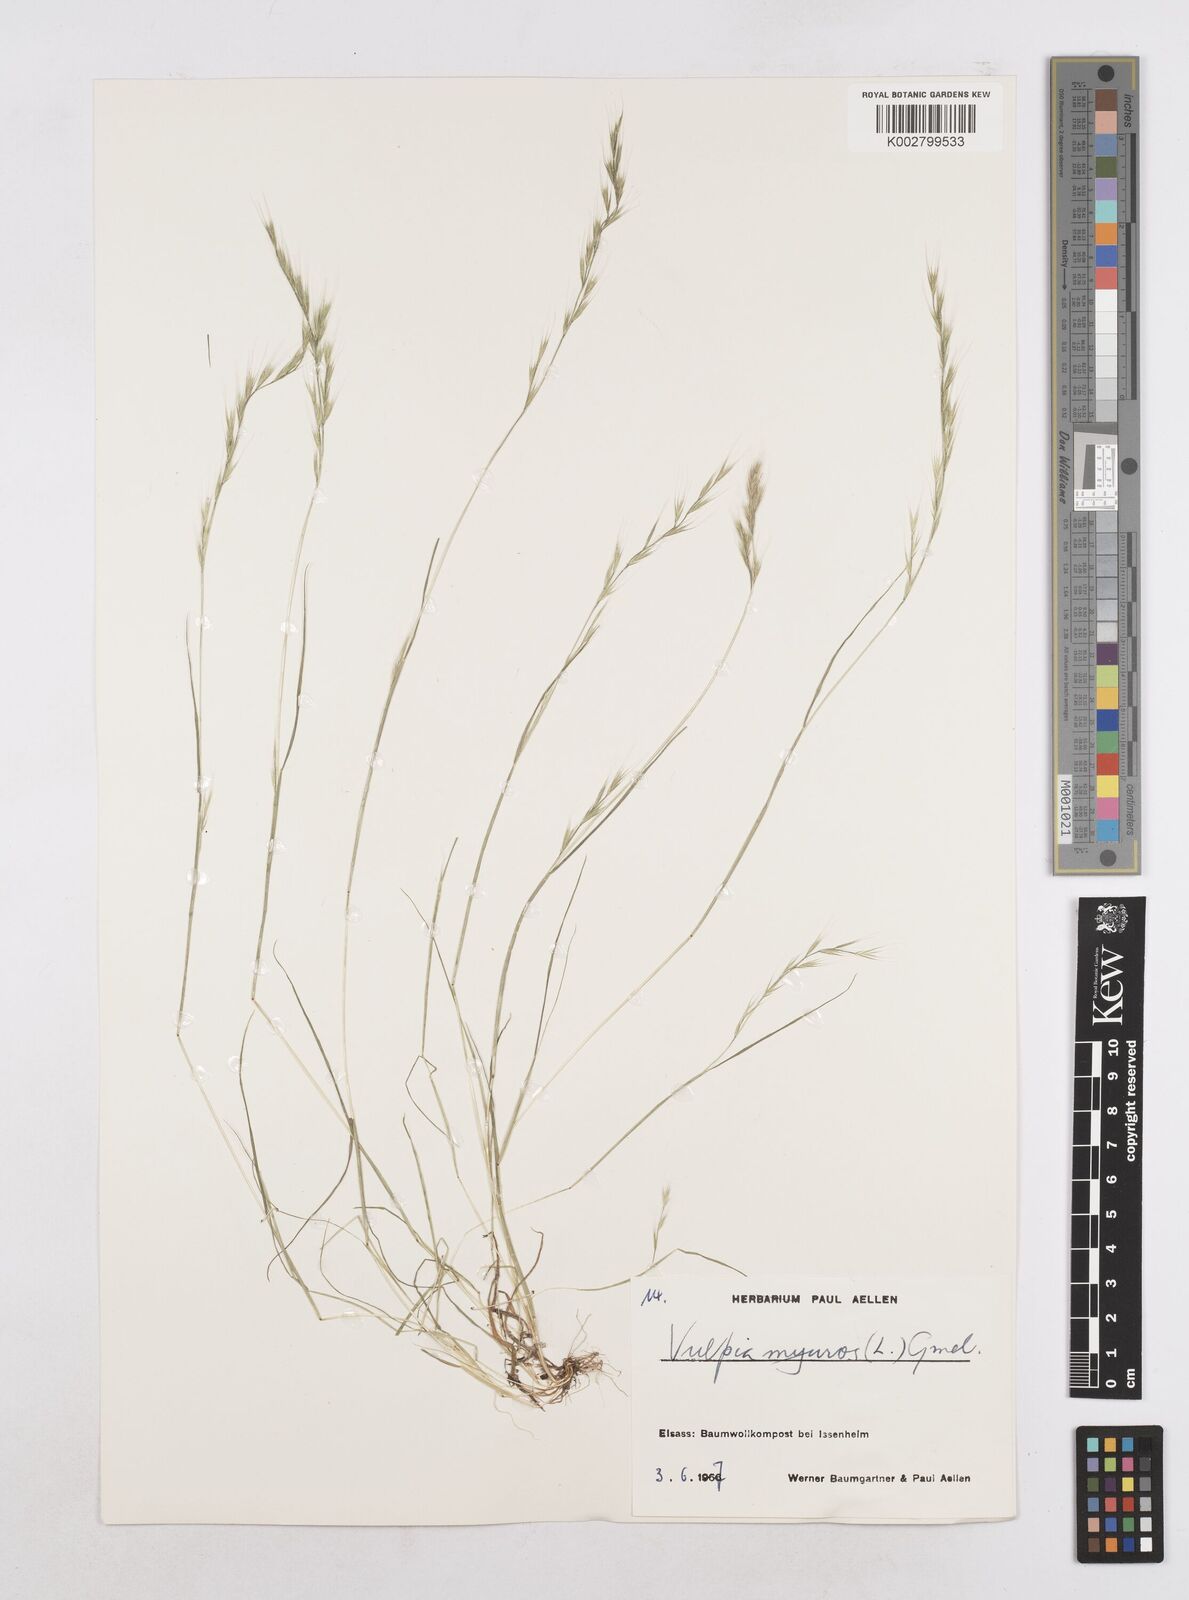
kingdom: Plantae
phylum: Tracheophyta
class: Liliopsida
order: Poales
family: Poaceae
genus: Festuca
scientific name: Festuca myuros
